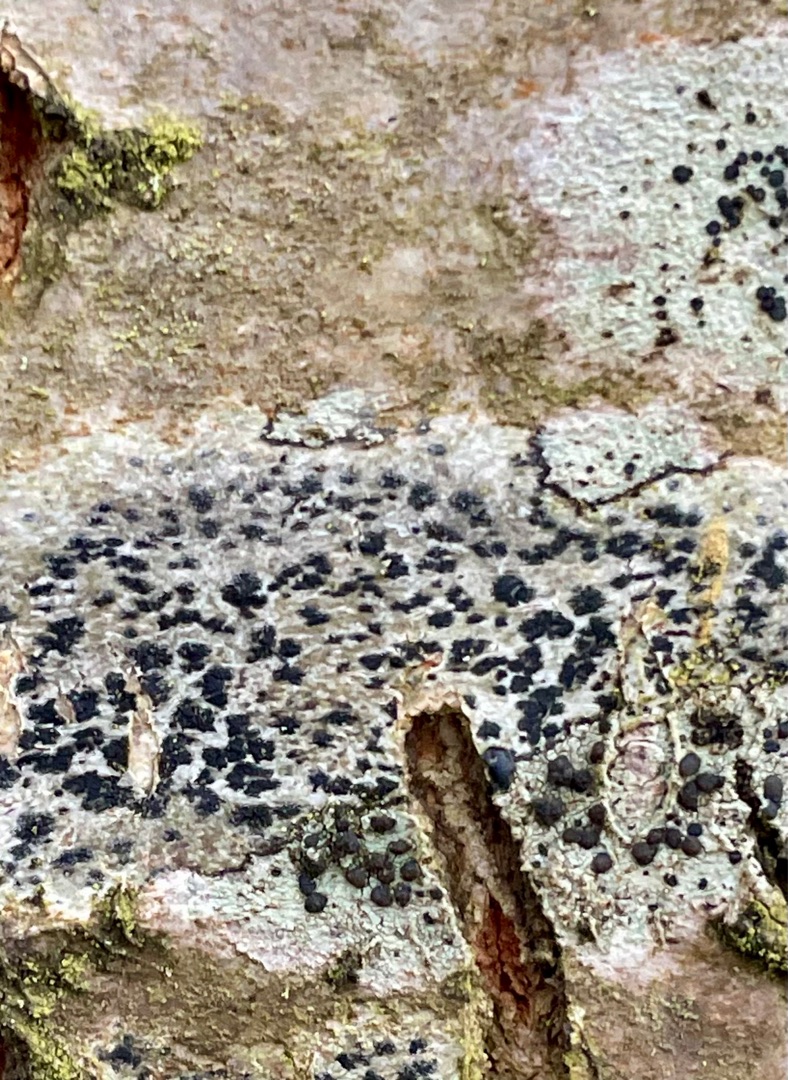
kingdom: Fungi
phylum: Ascomycota
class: Arthoniomycetes
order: Arthoniales
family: Arthoniaceae
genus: Arthonia
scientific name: Arthonia radiata
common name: Stjerne-pletlav
